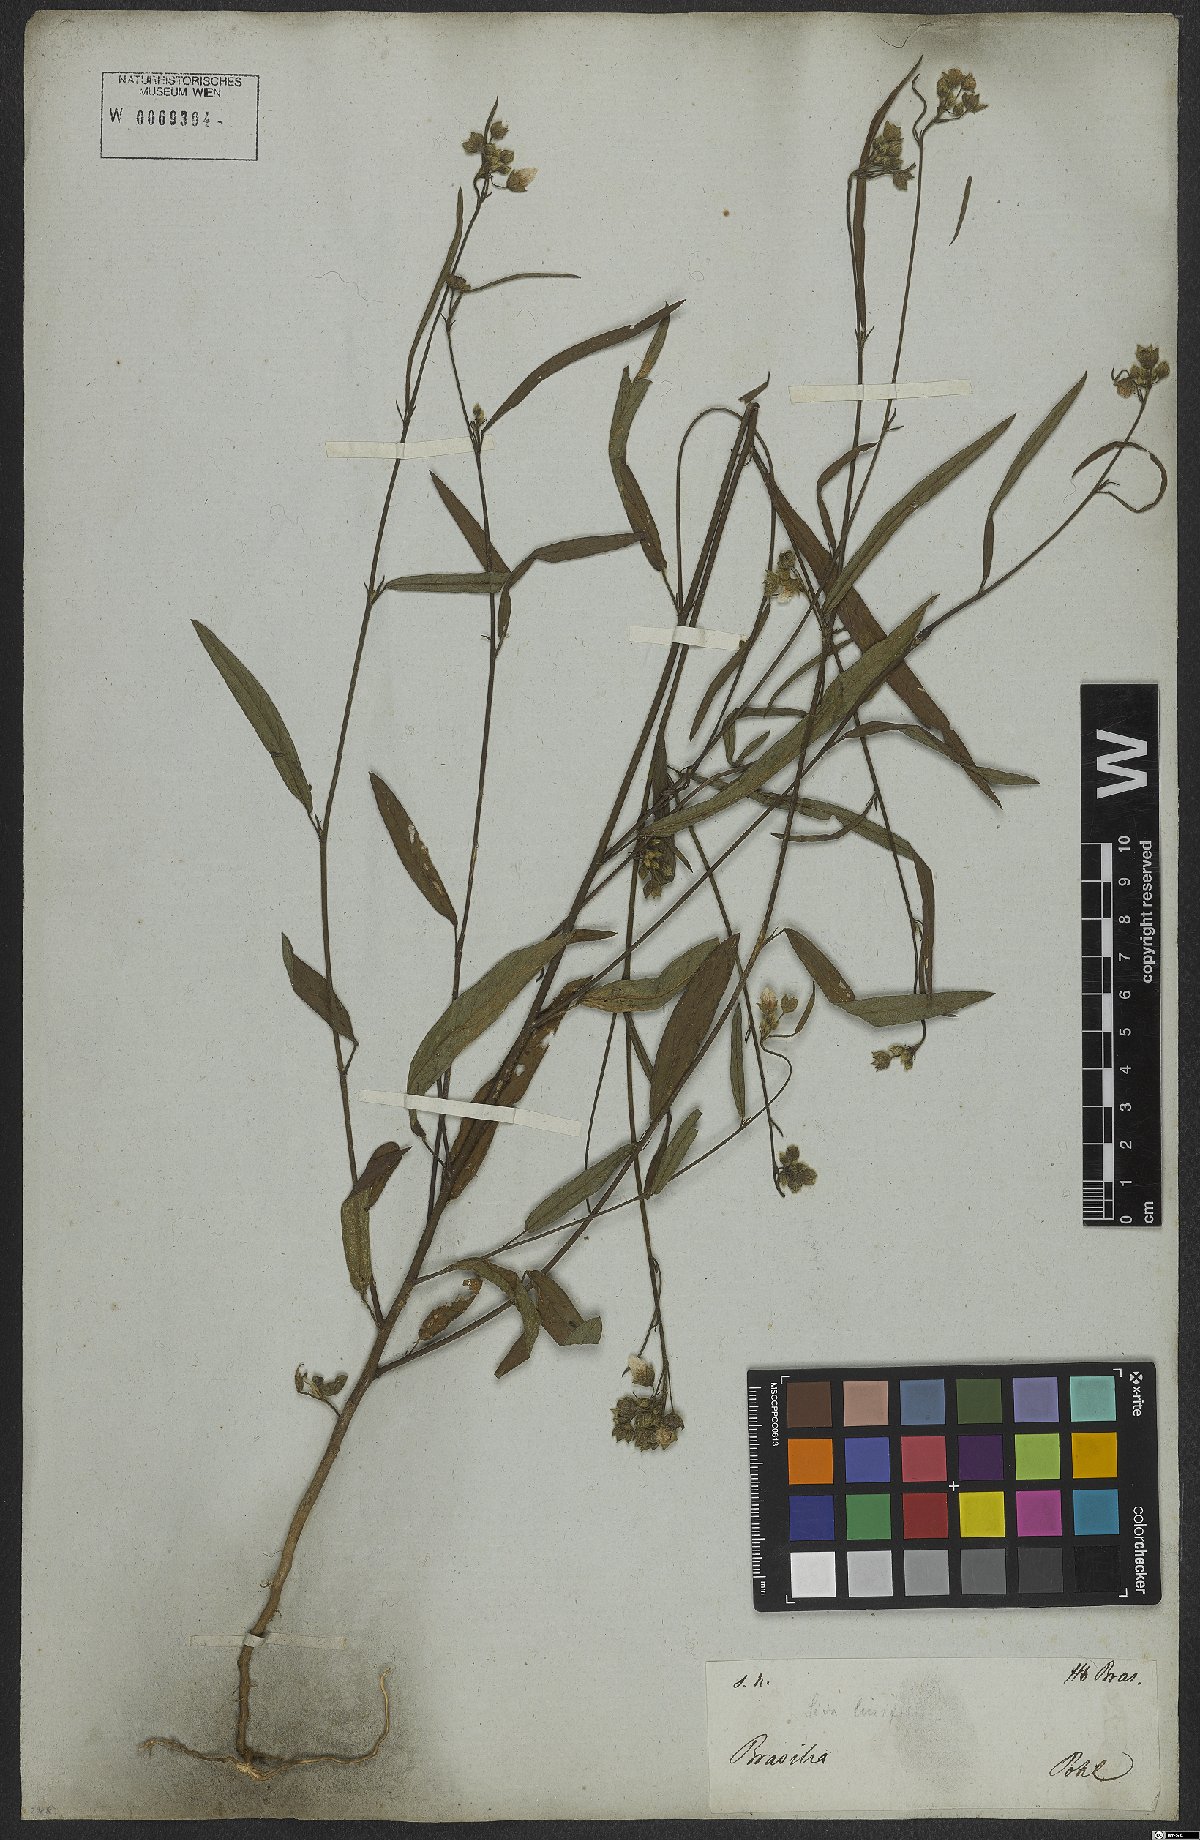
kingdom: Plantae
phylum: Tracheophyta
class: Magnoliopsida
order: Malvales
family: Malvaceae
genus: Sida
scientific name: Sida linifolia
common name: Flaxleaf fanpetals
